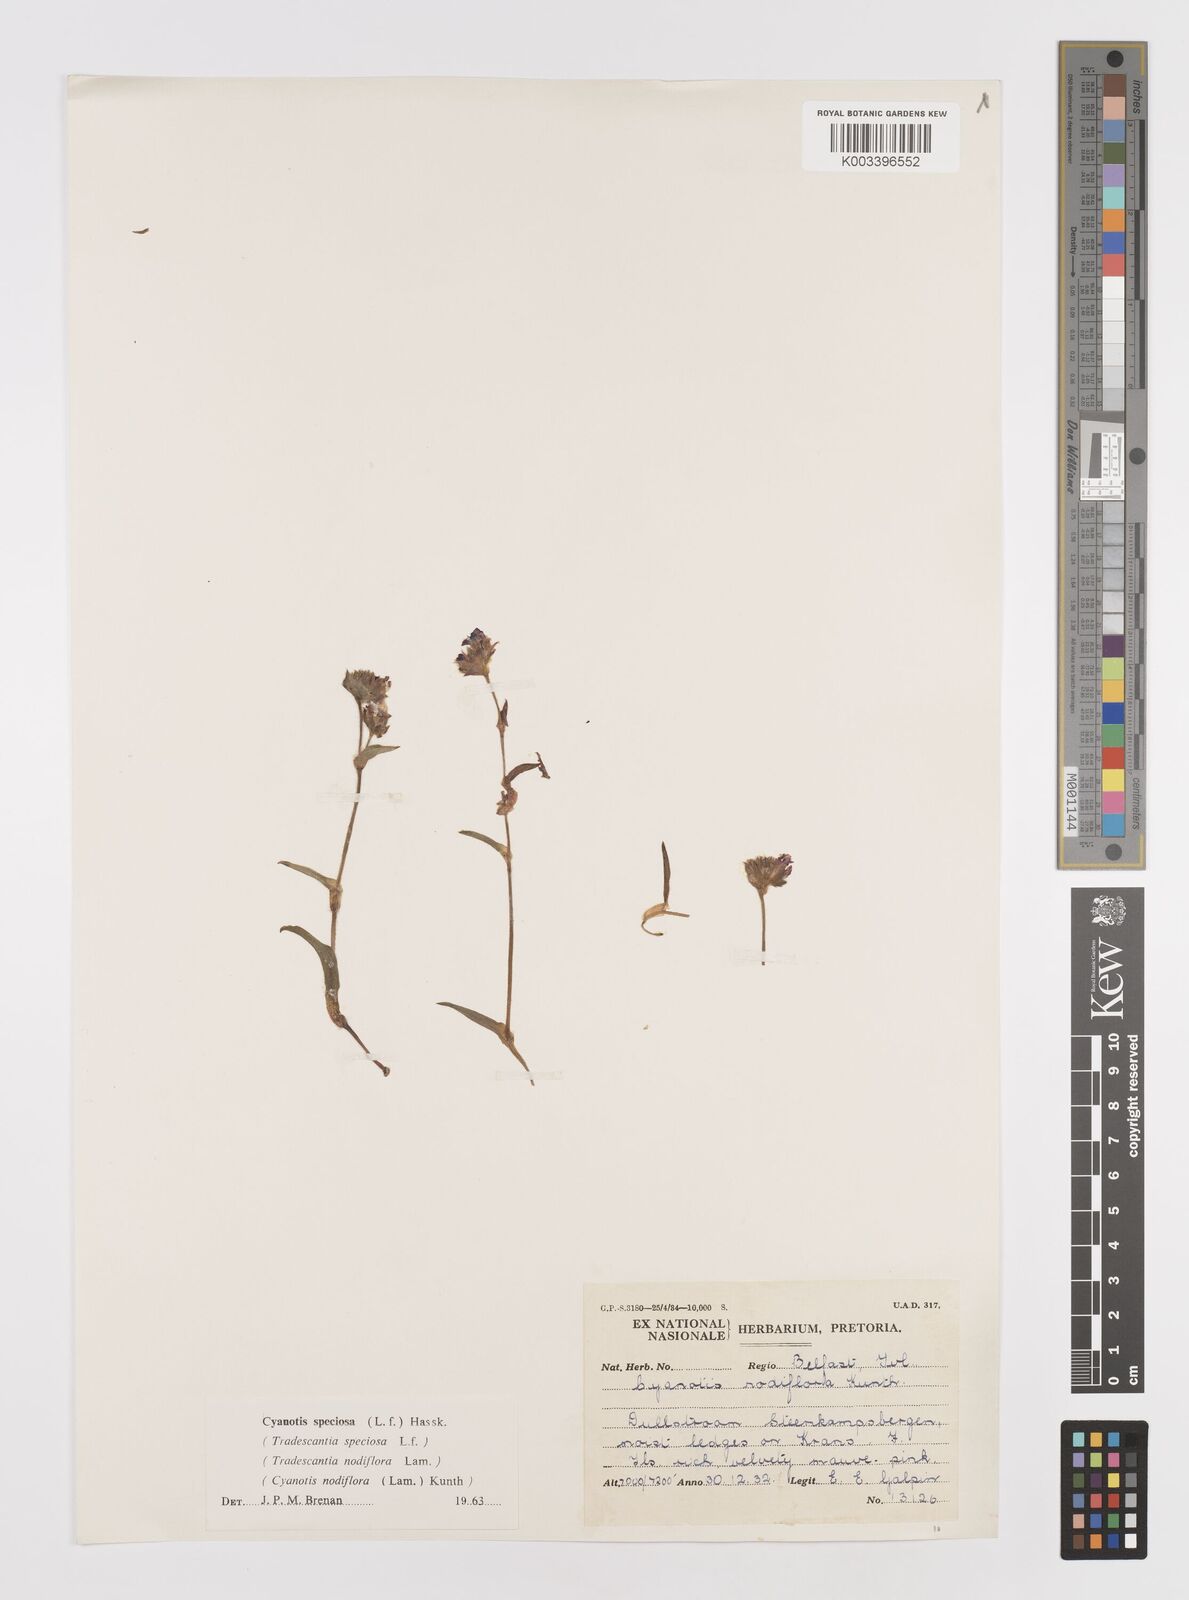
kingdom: Plantae
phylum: Tracheophyta
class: Liliopsida
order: Commelinales
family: Commelinaceae
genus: Cyanotis
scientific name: Cyanotis speciosa
